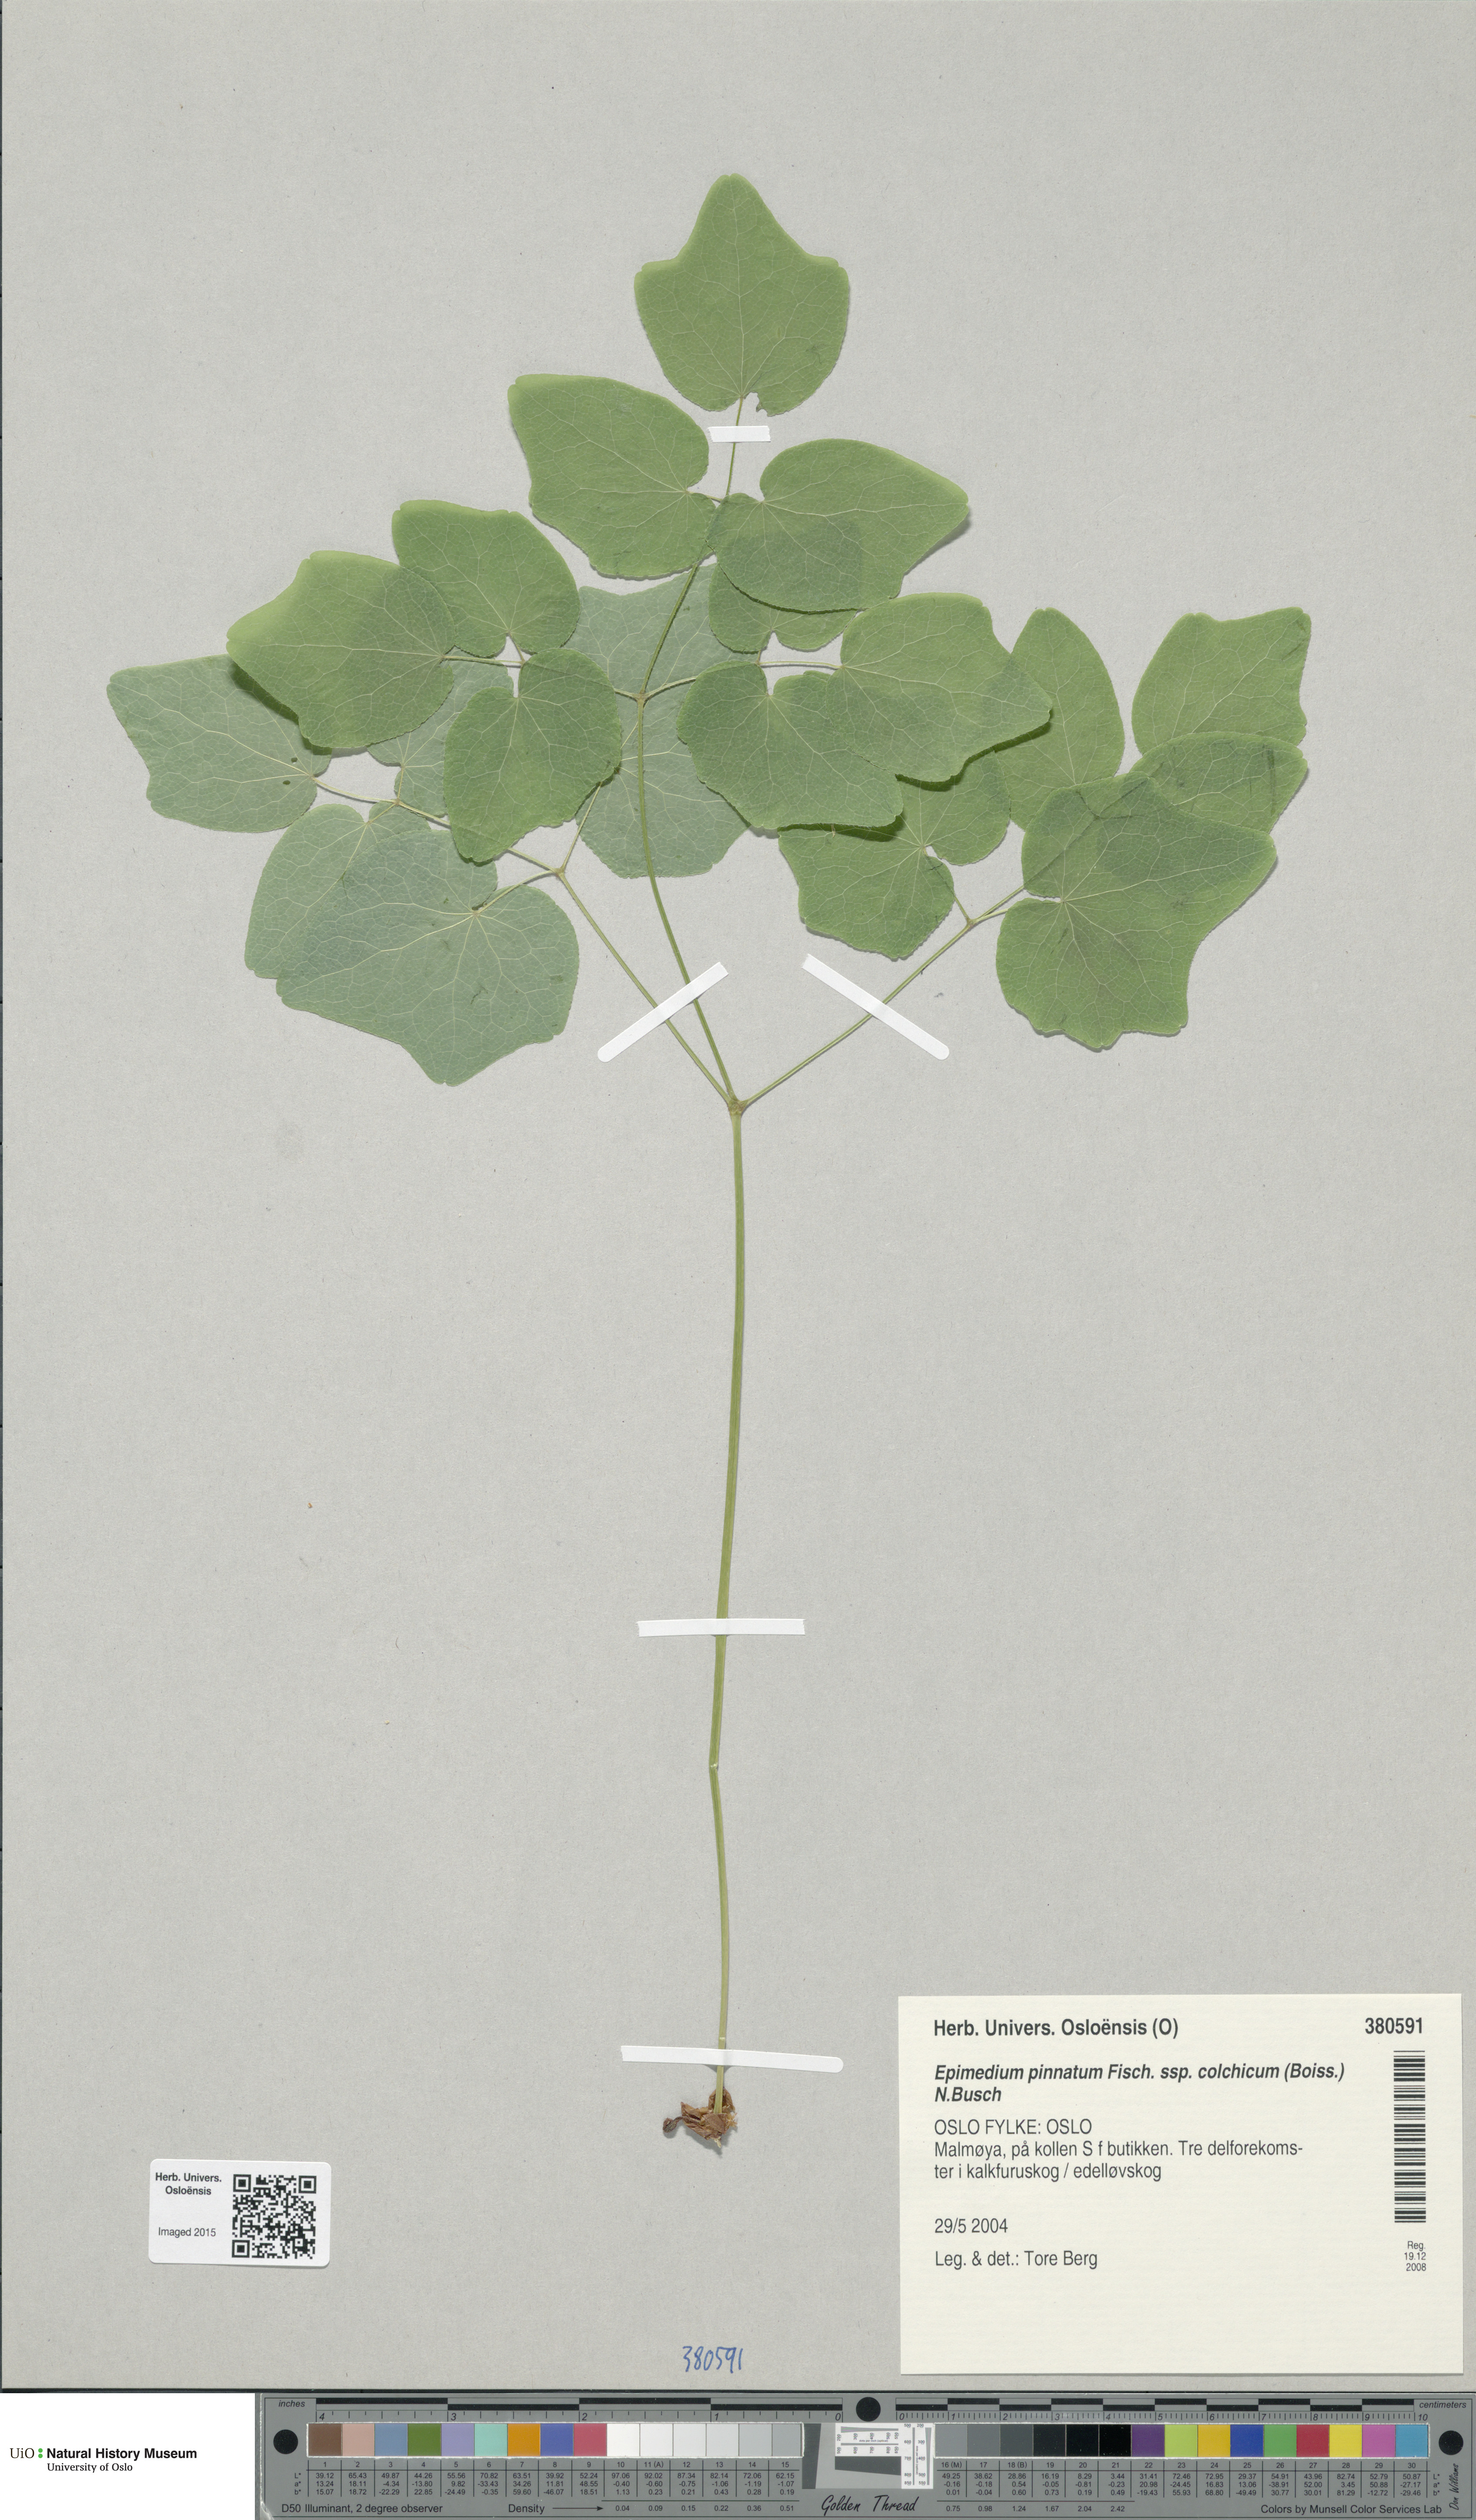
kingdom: Plantae
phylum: Tracheophyta
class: Magnoliopsida
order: Ranunculales
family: Berberidaceae
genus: Epimedium
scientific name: Epimedium pinnatum
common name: Caucasian barrenwort
